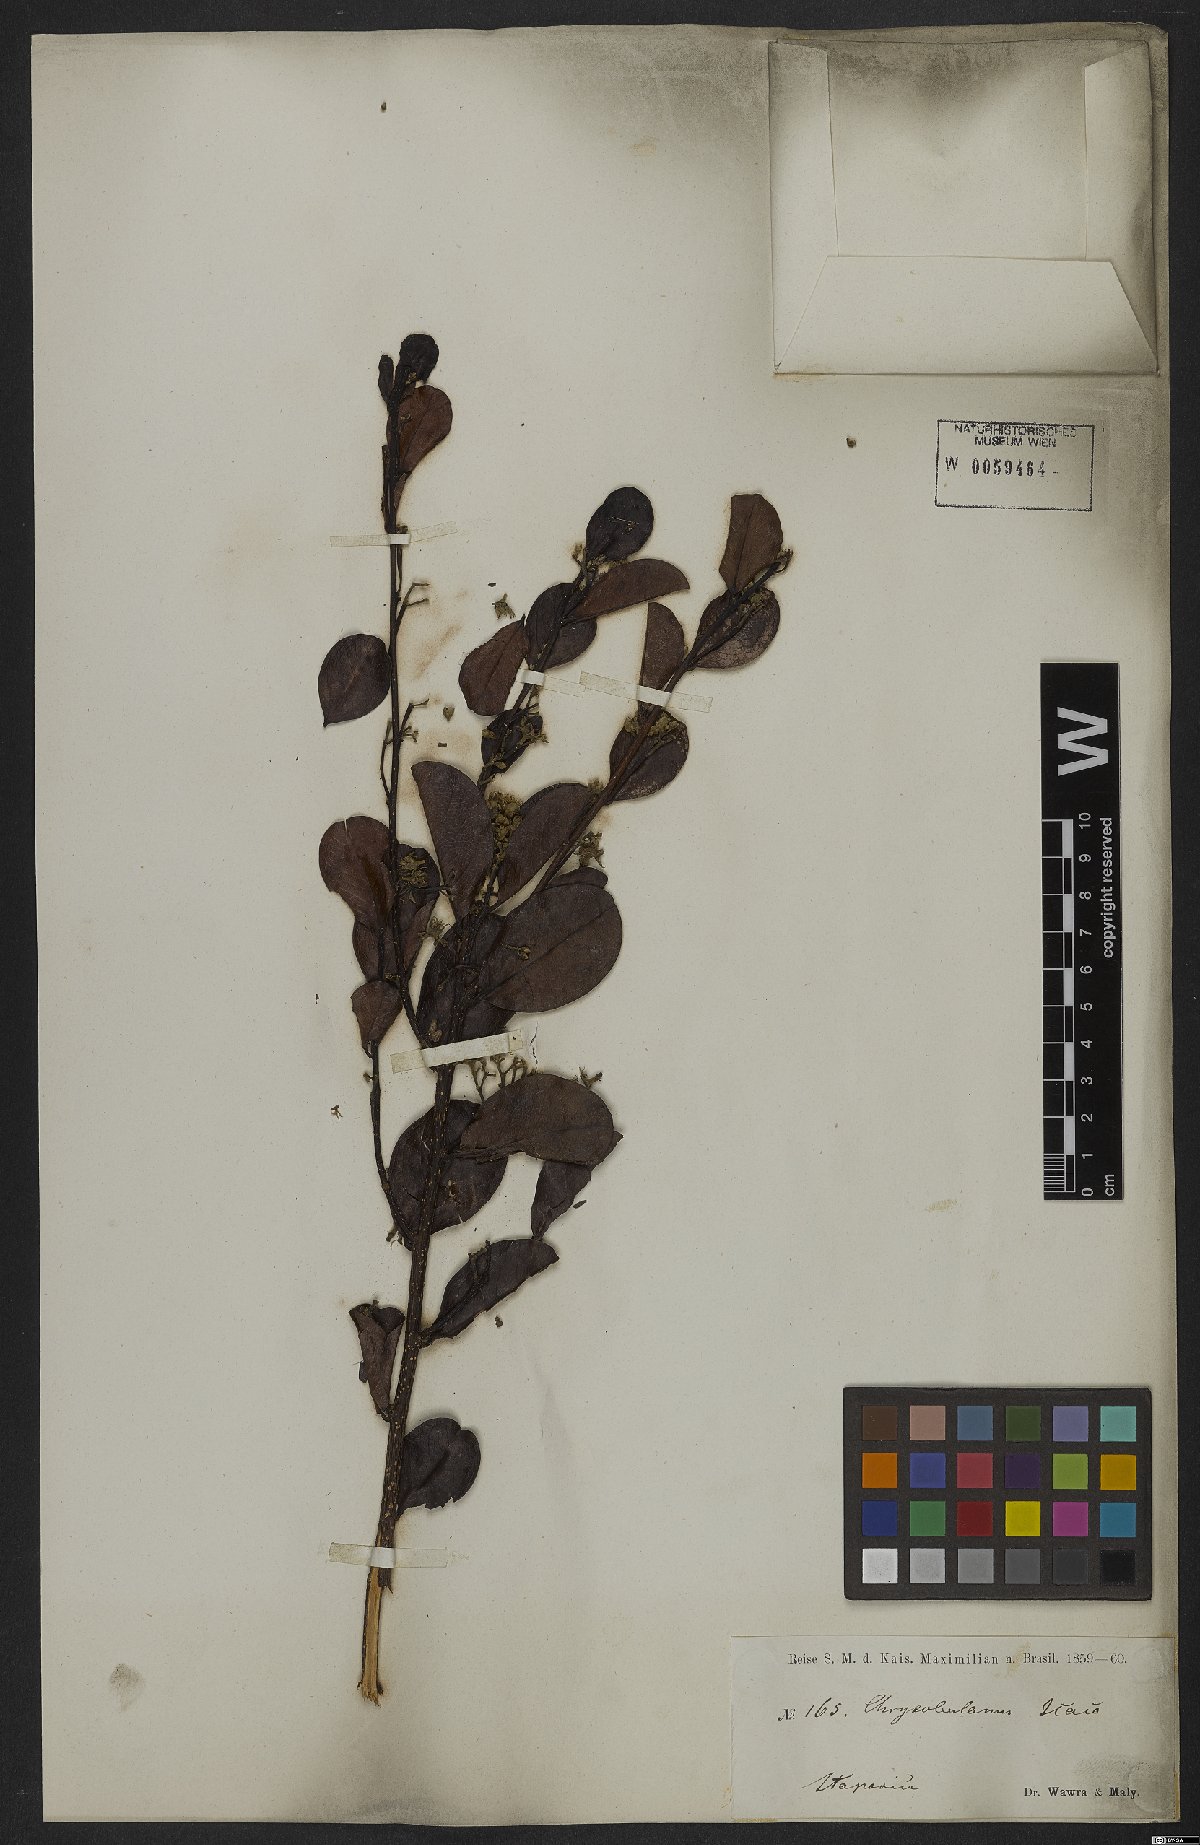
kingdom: Plantae
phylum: Tracheophyta
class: Magnoliopsida
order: Malpighiales
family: Chrysobalanaceae
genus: Chrysobalanus
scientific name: Chrysobalanus icaco
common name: Coco plum
